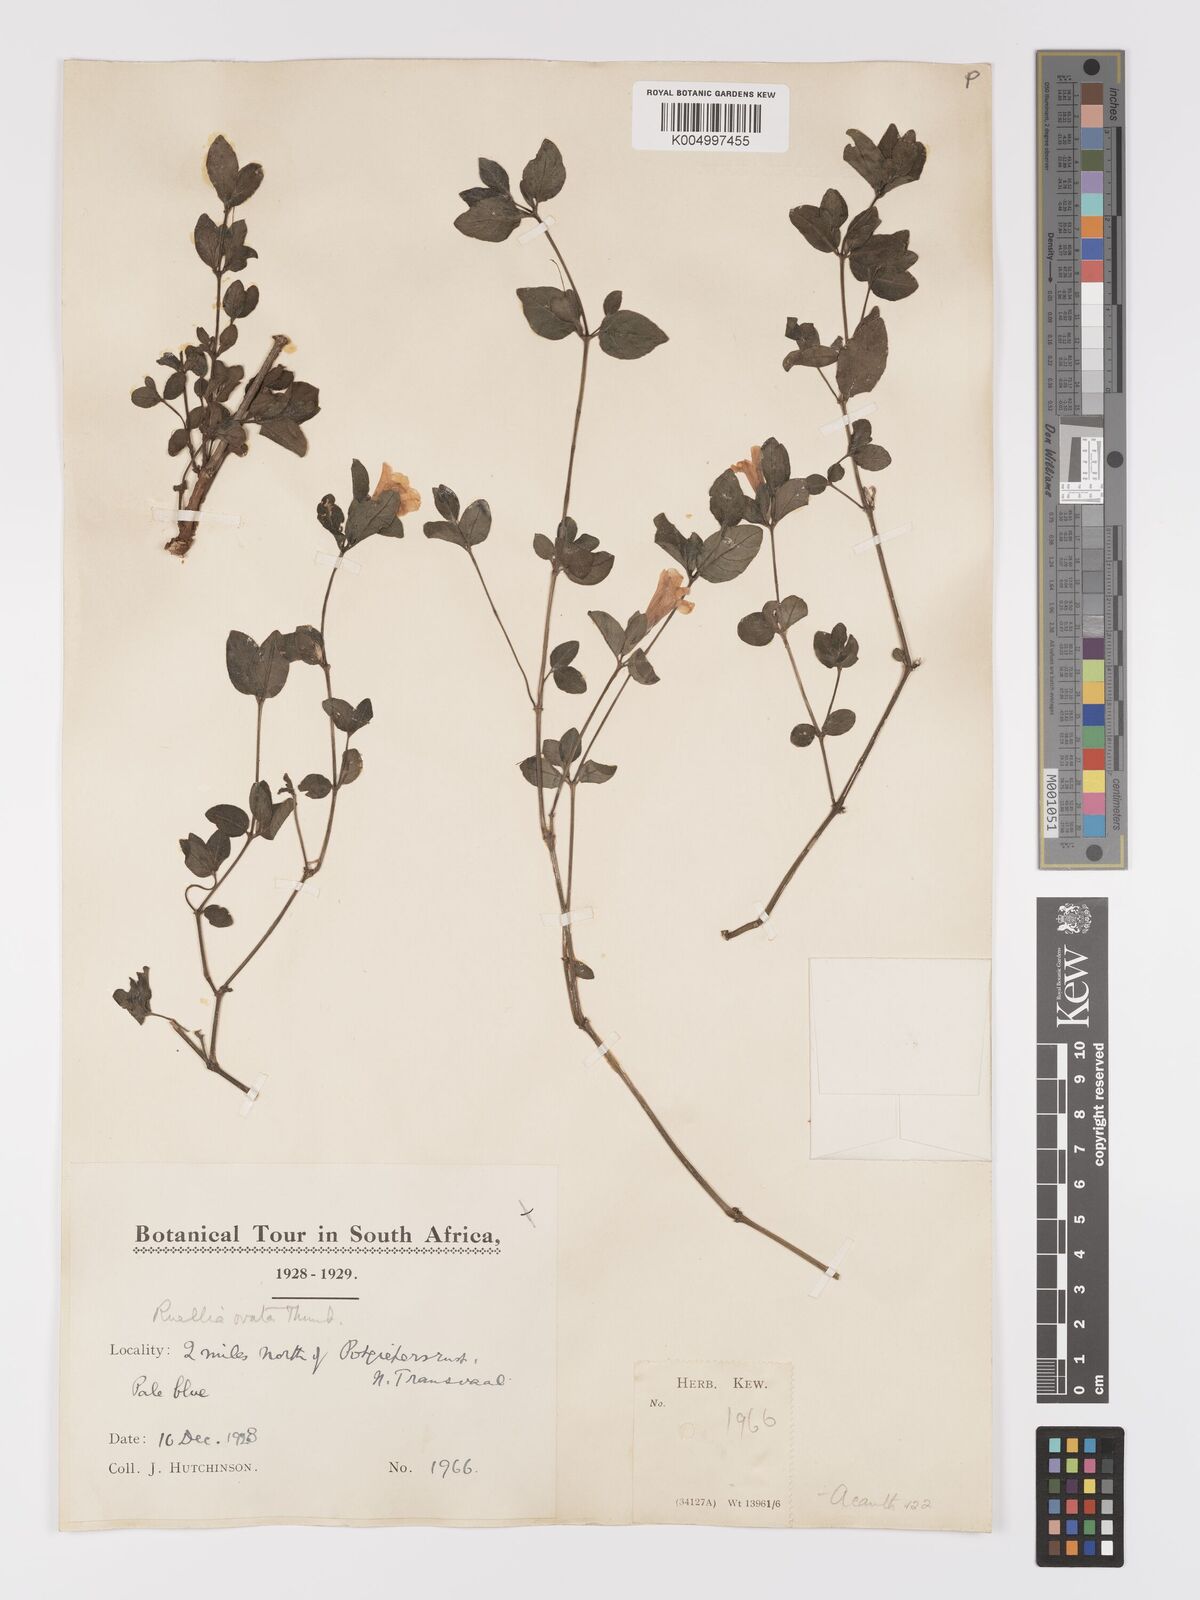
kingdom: Plantae
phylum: Tracheophyta
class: Magnoliopsida
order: Lamiales
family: Acanthaceae
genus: Ruellia
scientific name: Ruellia cordata
